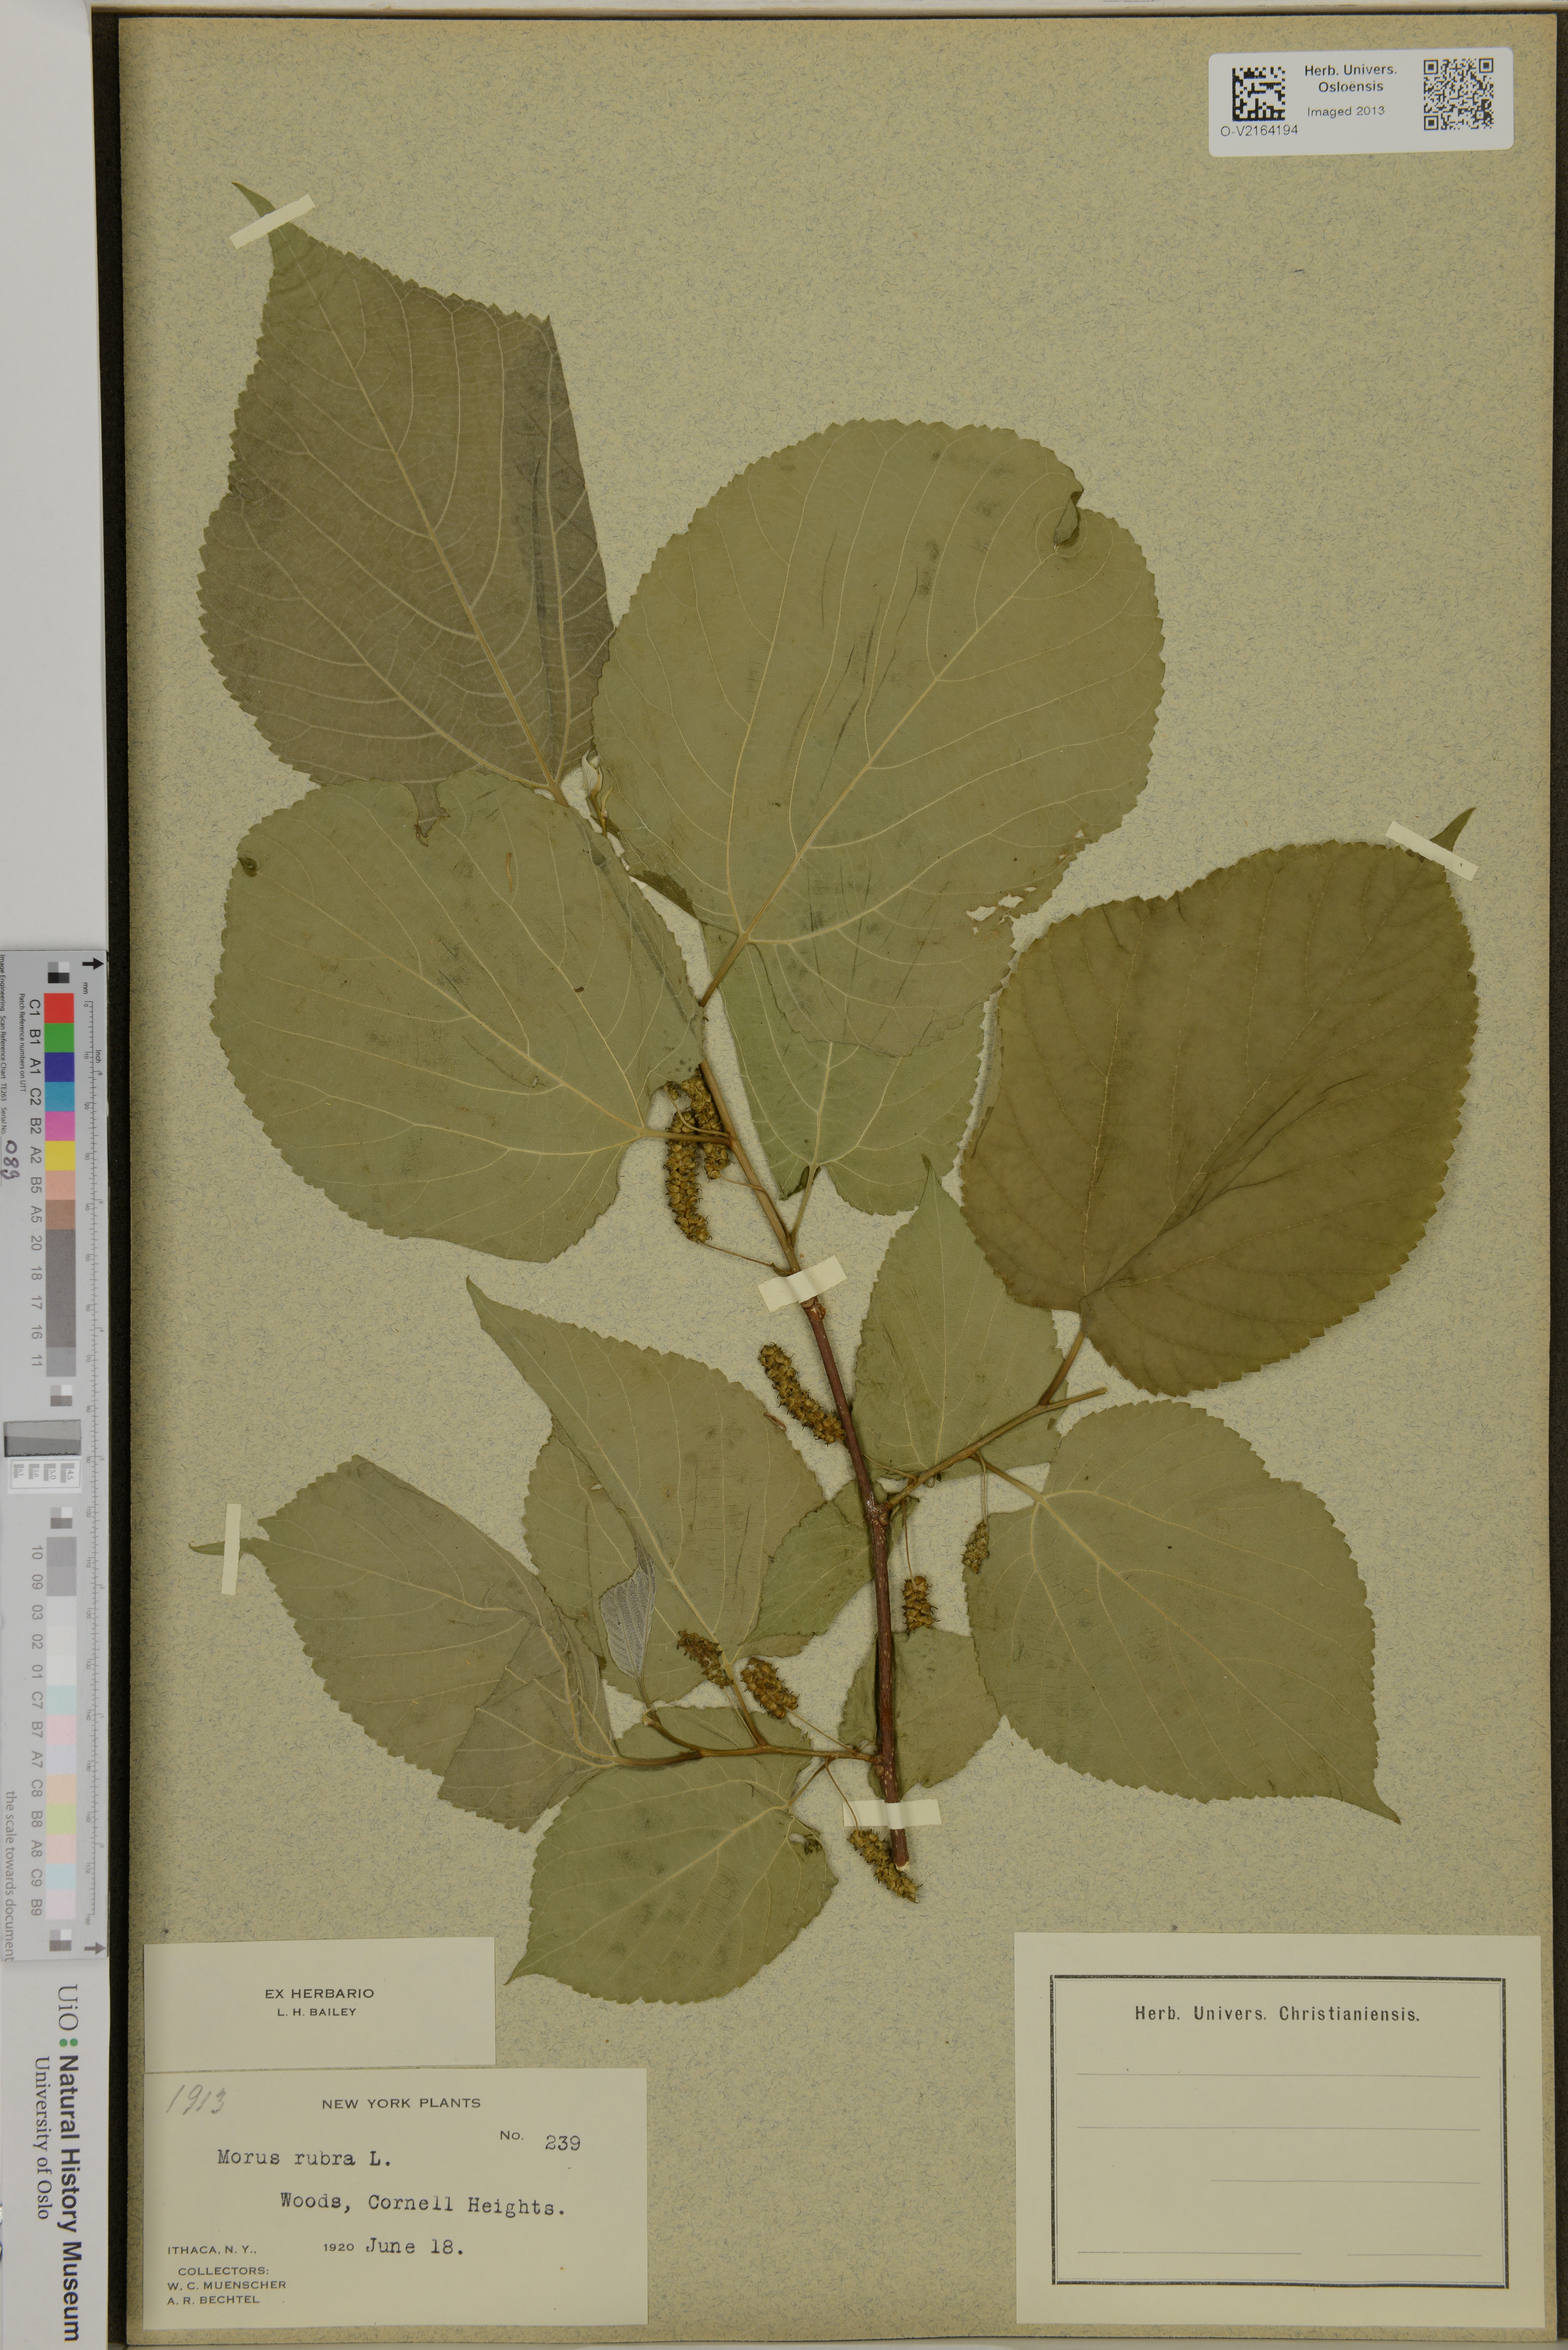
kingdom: Plantae
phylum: Tracheophyta
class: Magnoliopsida
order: Rosales
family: Moraceae
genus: Morus
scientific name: Morus rubra
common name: Red mulberry
